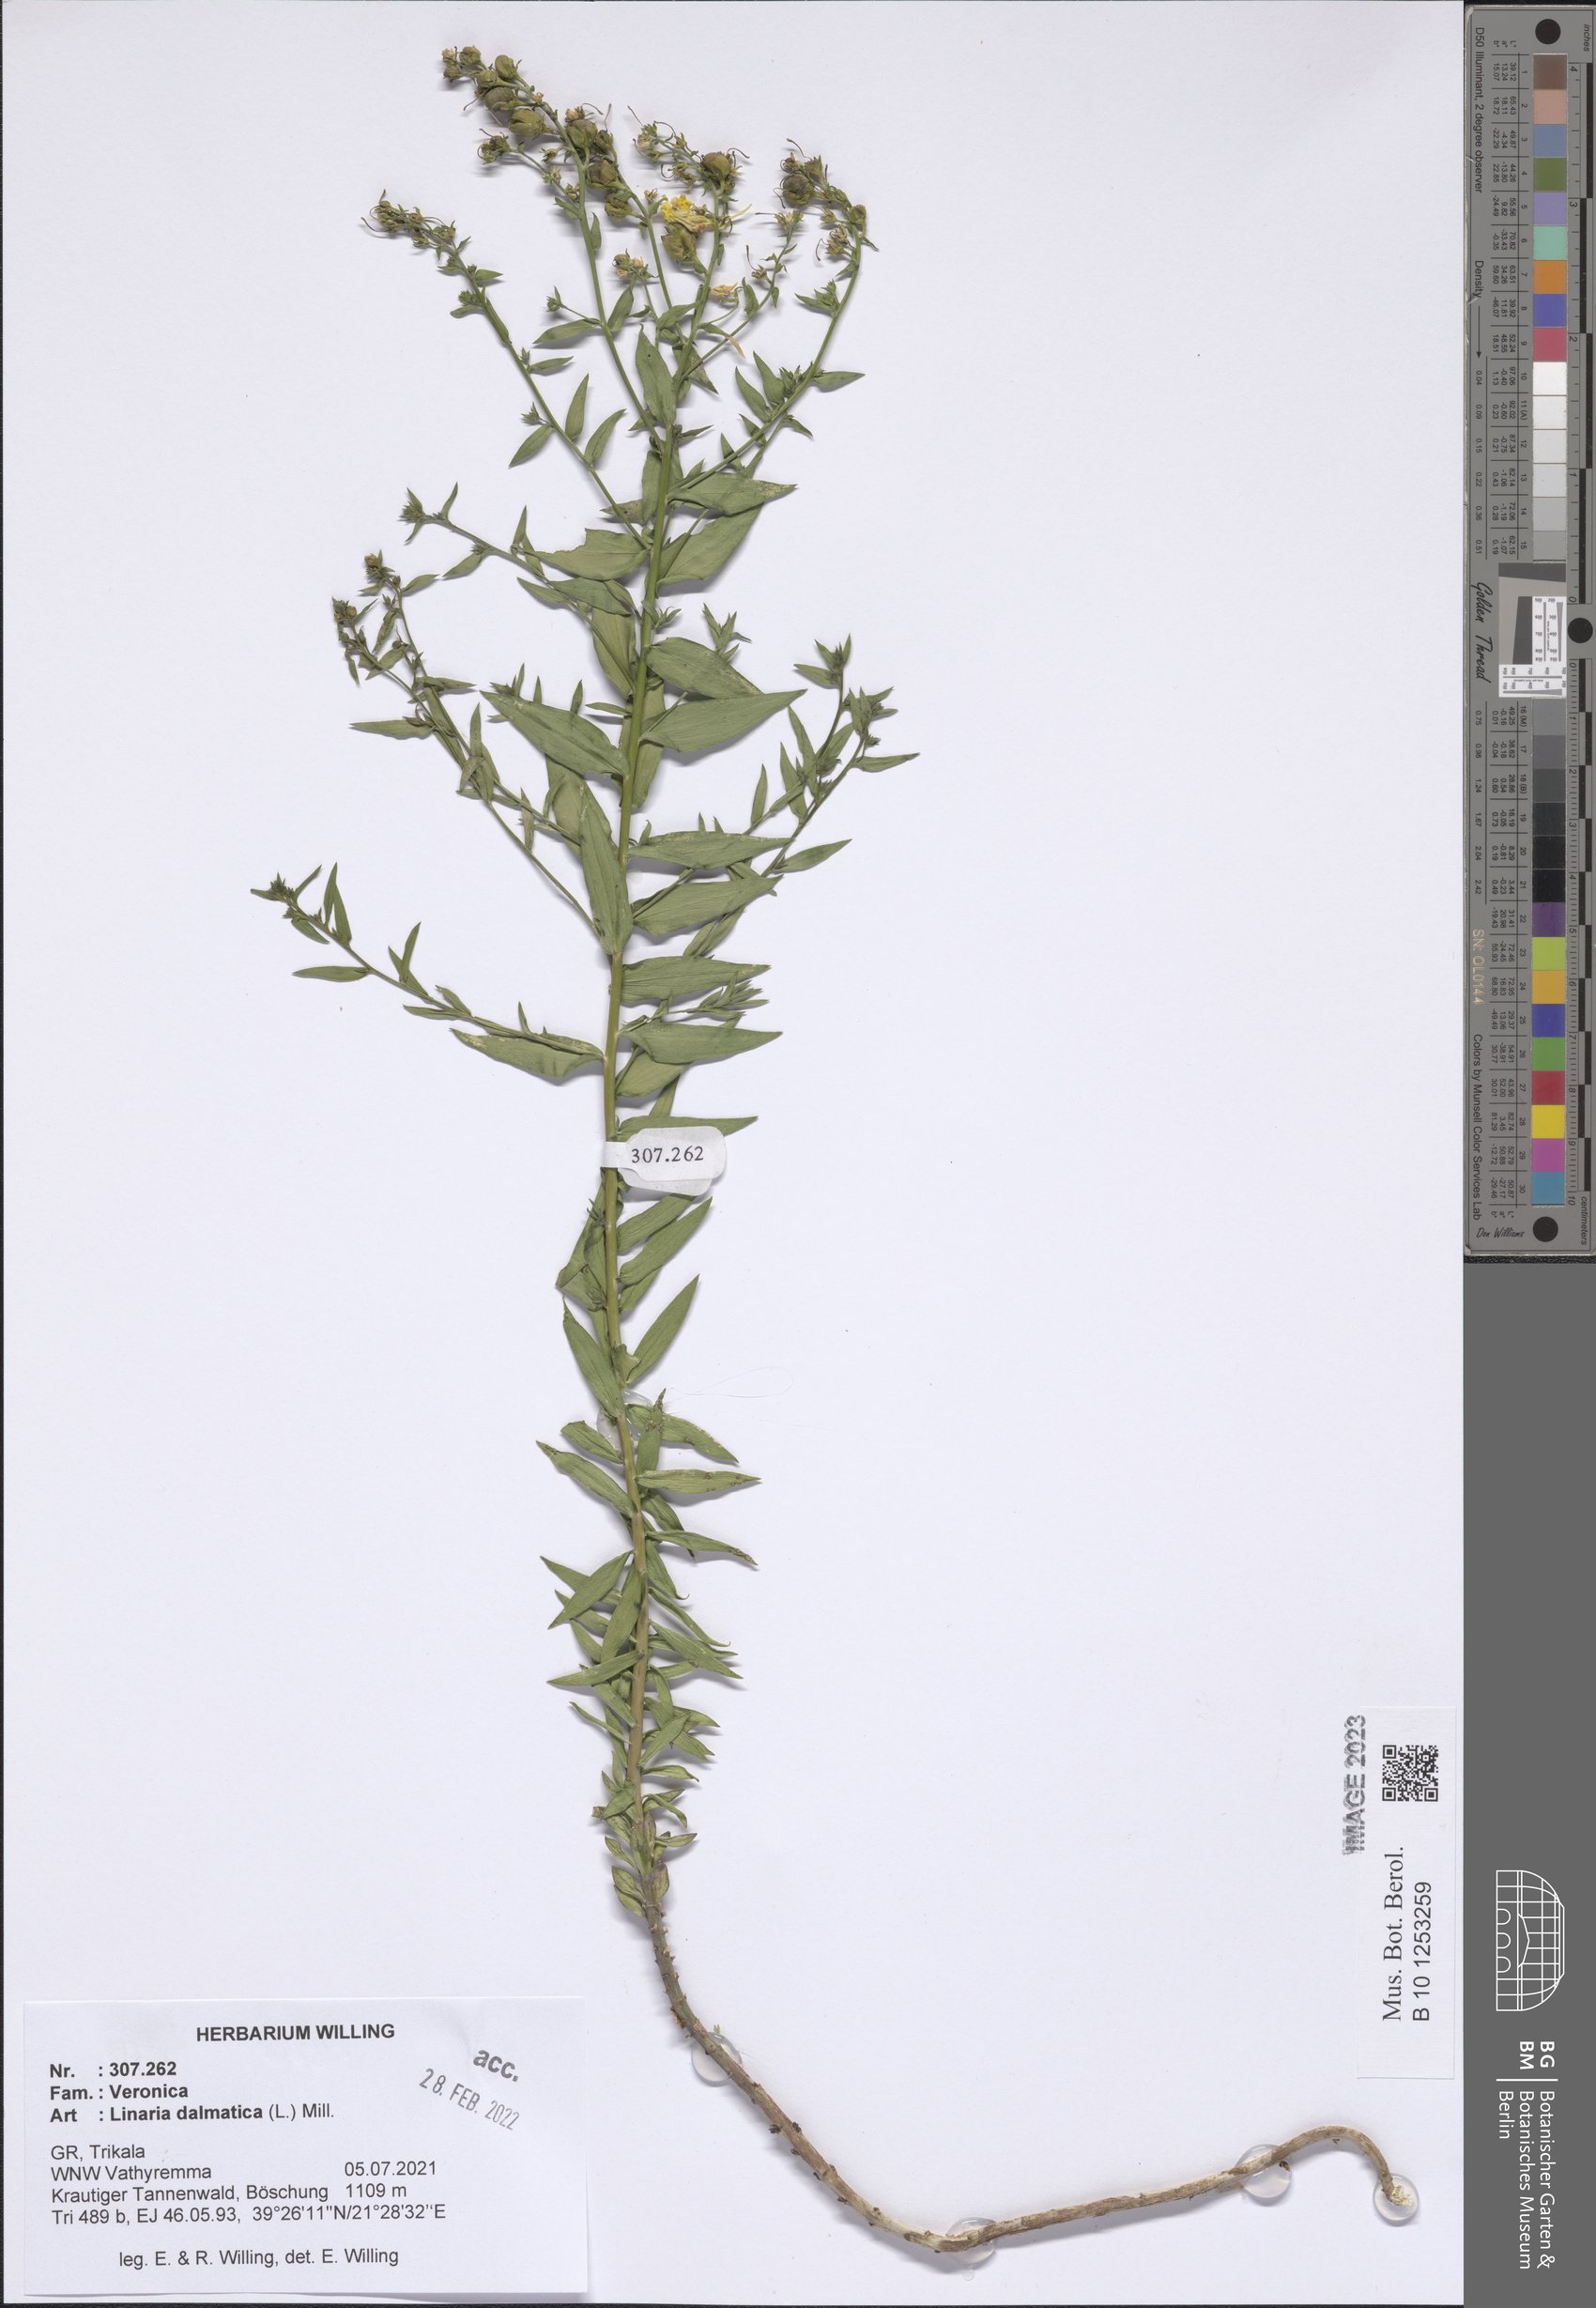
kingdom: Plantae
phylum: Tracheophyta
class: Magnoliopsida
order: Lamiales
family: Plantaginaceae
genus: Linaria
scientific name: Linaria dalmatica
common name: Dalmatian toadflax
